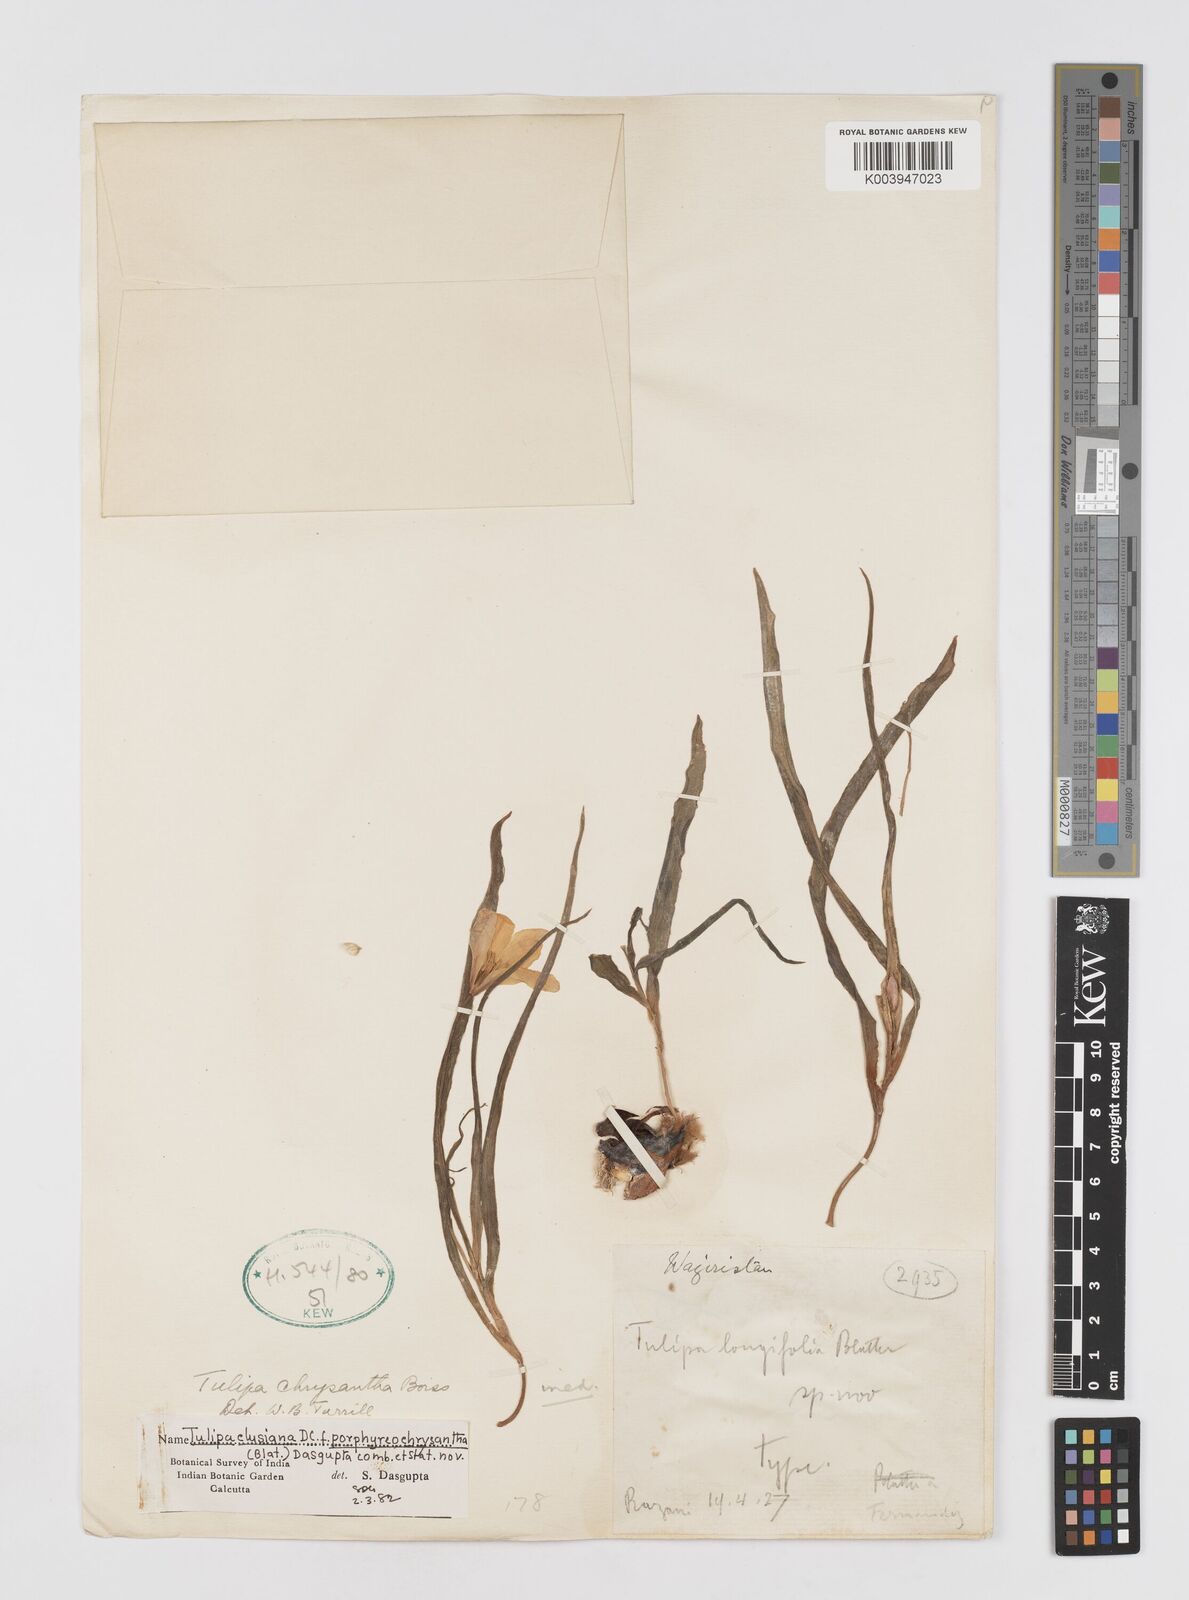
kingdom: Plantae
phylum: Tracheophyta
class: Liliopsida
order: Liliales
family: Liliaceae
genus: Tulipa
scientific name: Tulipa clusiana
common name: Lady tulip
